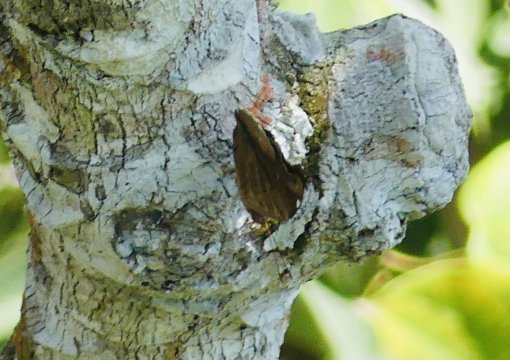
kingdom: Animalia
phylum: Arthropoda
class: Insecta
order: Lepidoptera
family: Nymphalidae
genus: Historis
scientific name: Historis odius
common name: Orion Cecropian
